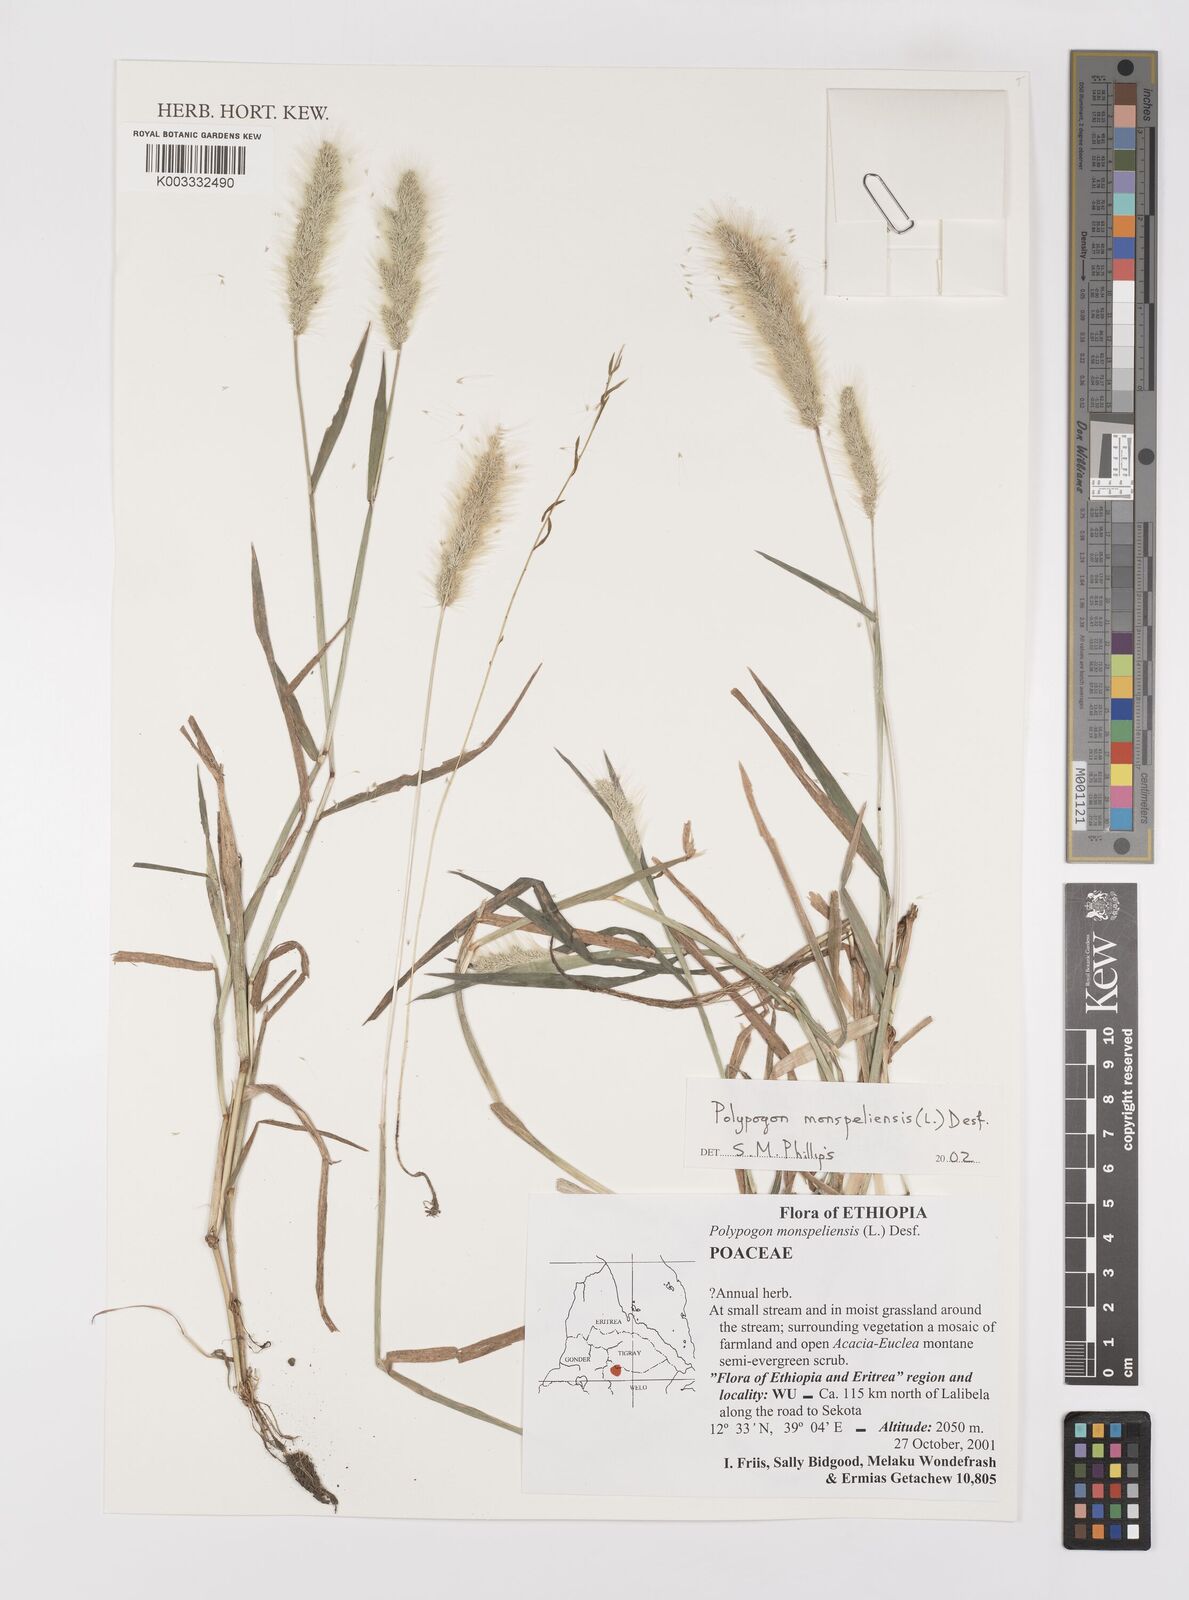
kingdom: Plantae
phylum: Tracheophyta
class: Liliopsida
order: Poales
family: Poaceae
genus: Polypogon
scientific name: Polypogon monspeliensis
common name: Annual rabbitsfoot grass
